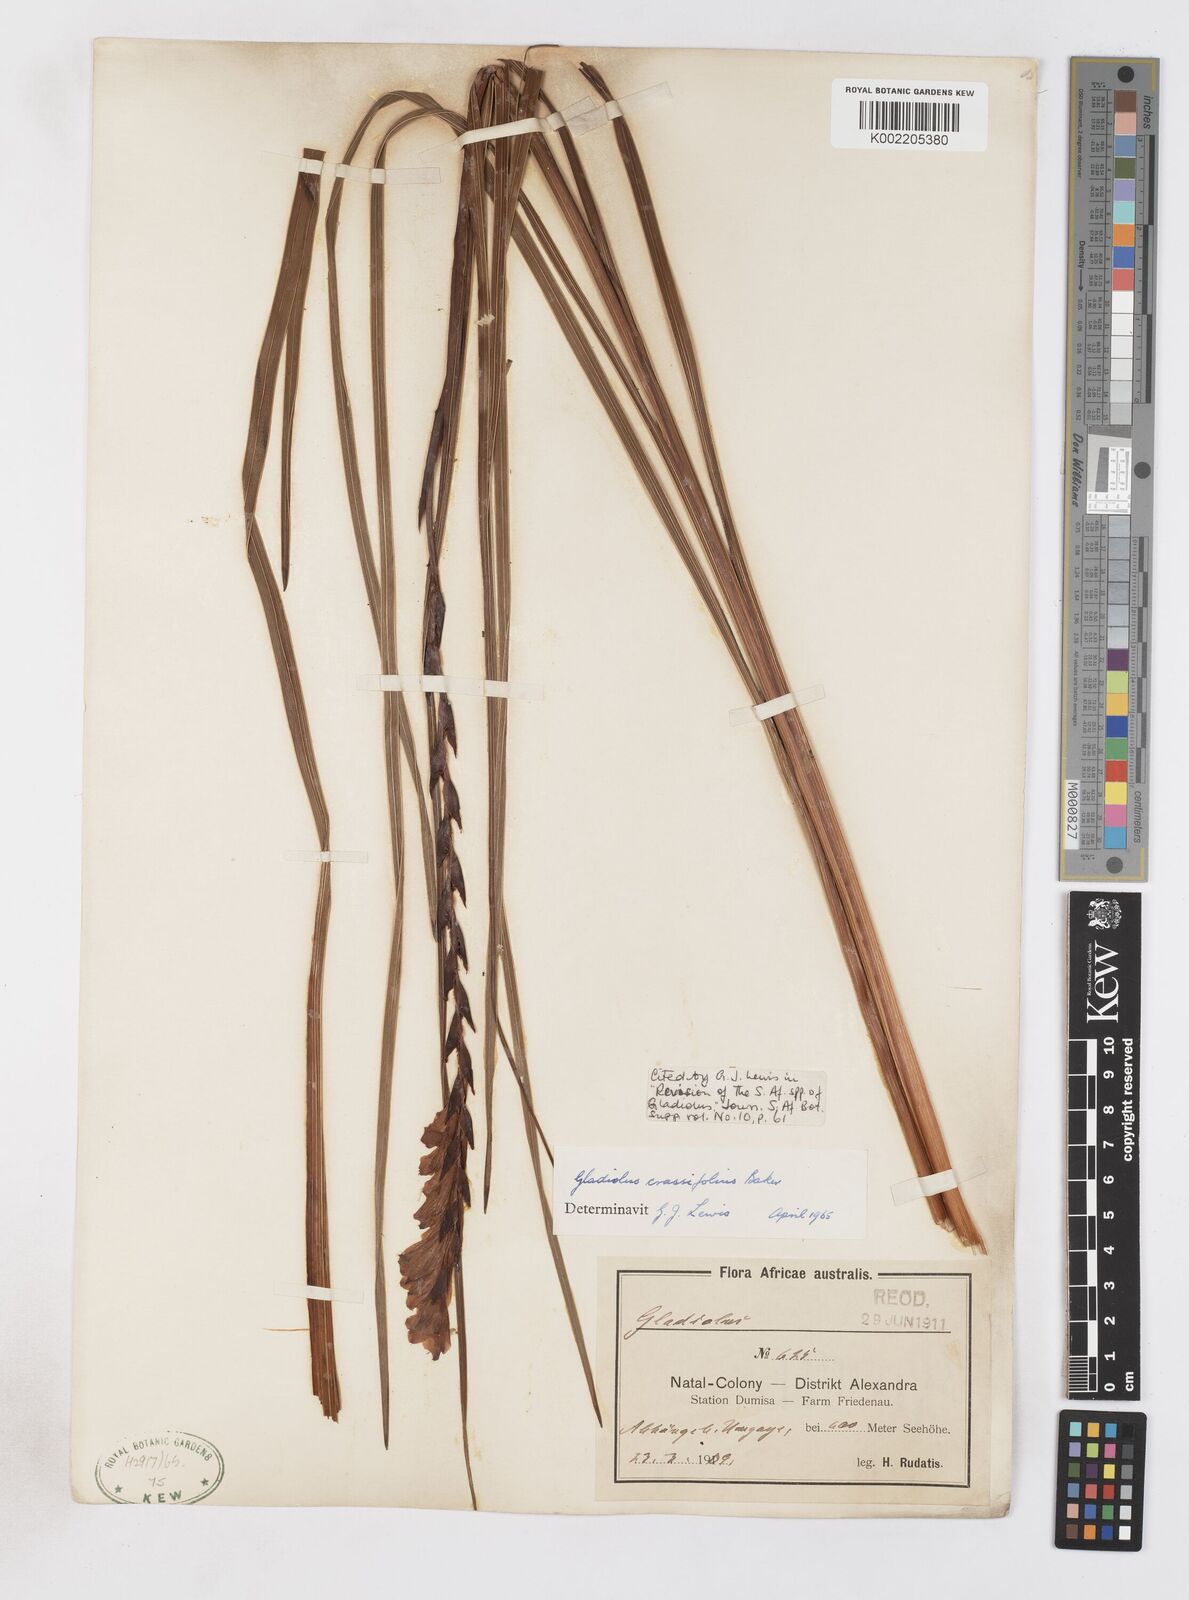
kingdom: Plantae
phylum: Tracheophyta
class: Liliopsida
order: Asparagales
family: Iridaceae
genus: Gladiolus
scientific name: Gladiolus crassifolius
